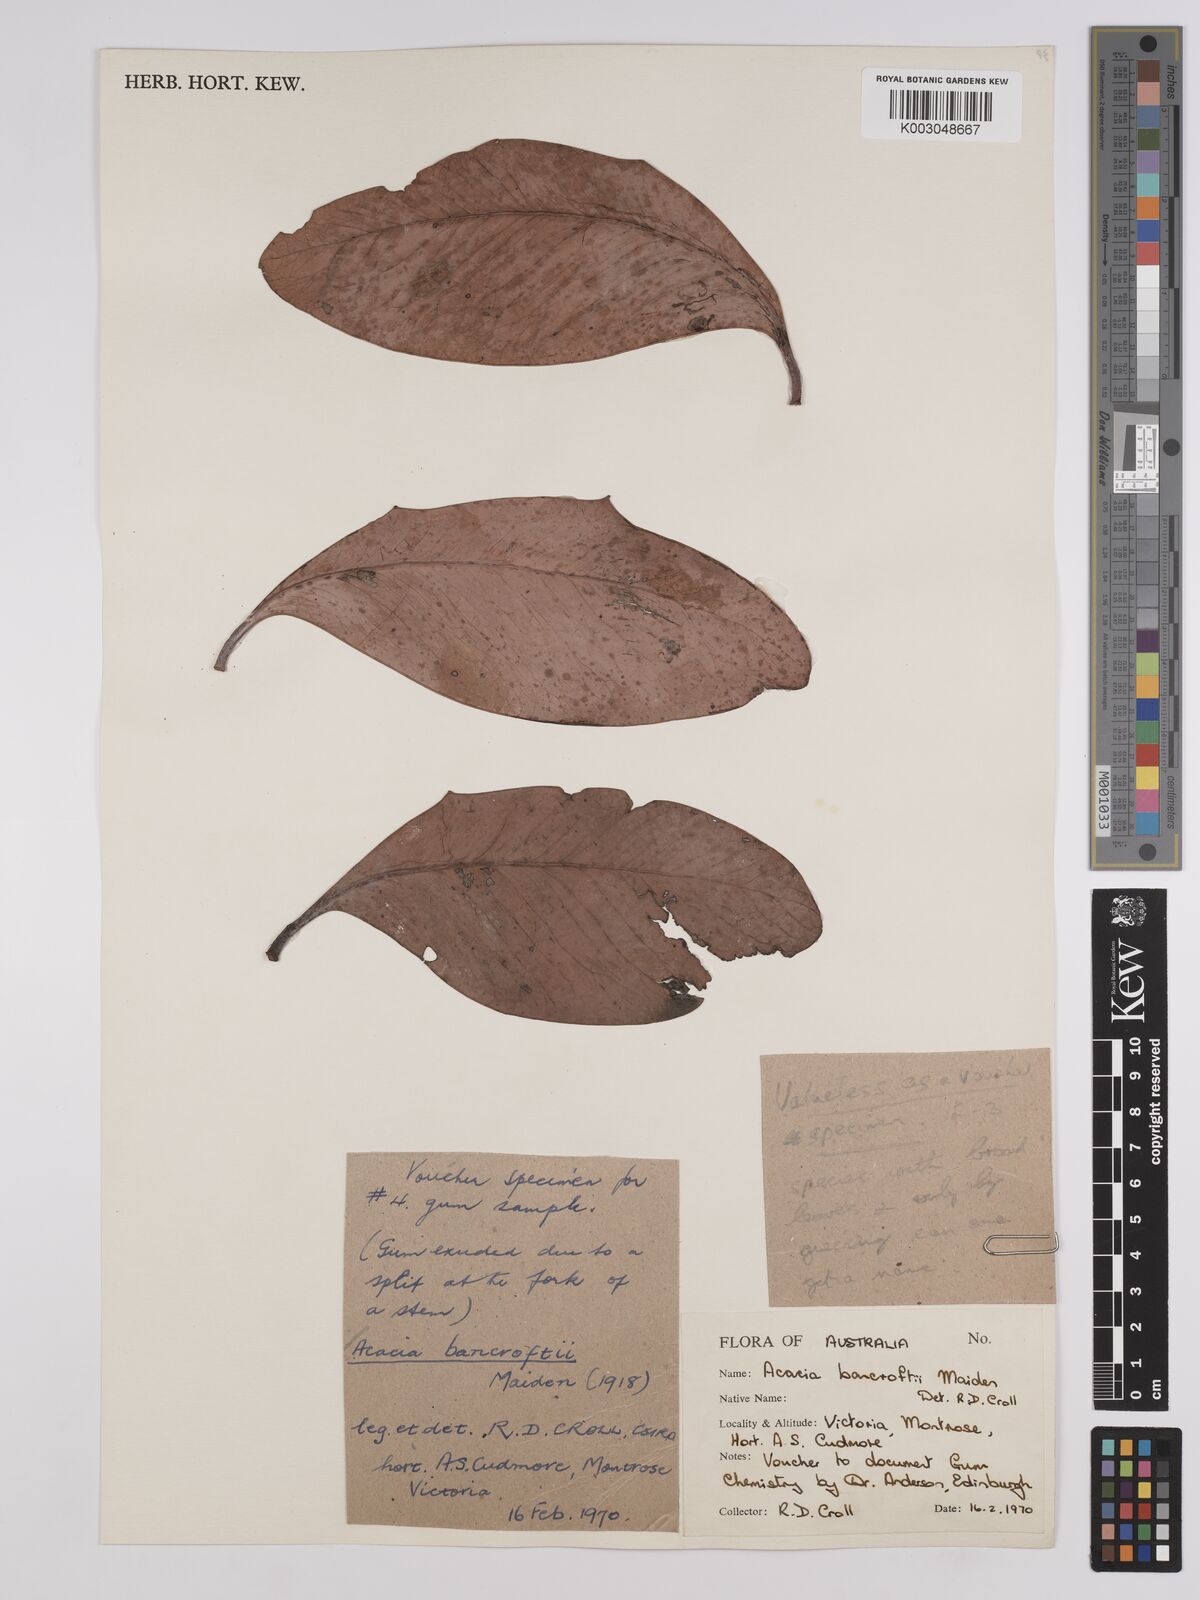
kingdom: Plantae
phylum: Tracheophyta
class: Magnoliopsida
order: Fabales
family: Fabaceae
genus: Acacia
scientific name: Acacia
